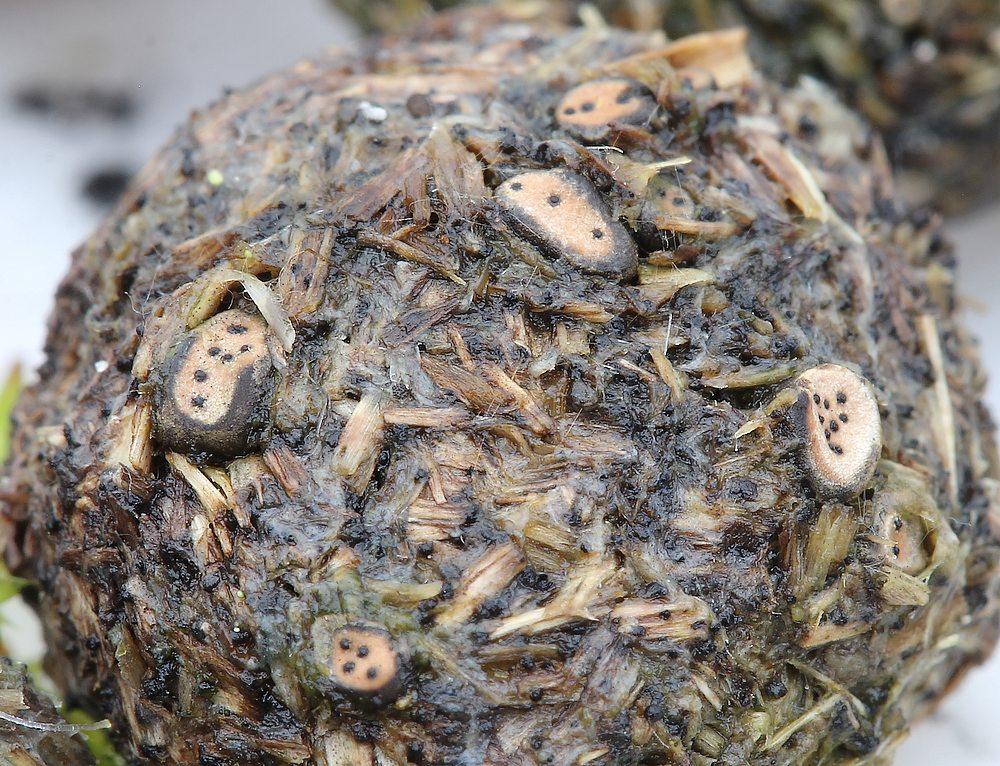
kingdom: Fungi
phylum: Ascomycota
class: Sordariomycetes
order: Xylariales
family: Xylariaceae
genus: Poronia
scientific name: Poronia erici
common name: hare-priksvamp
